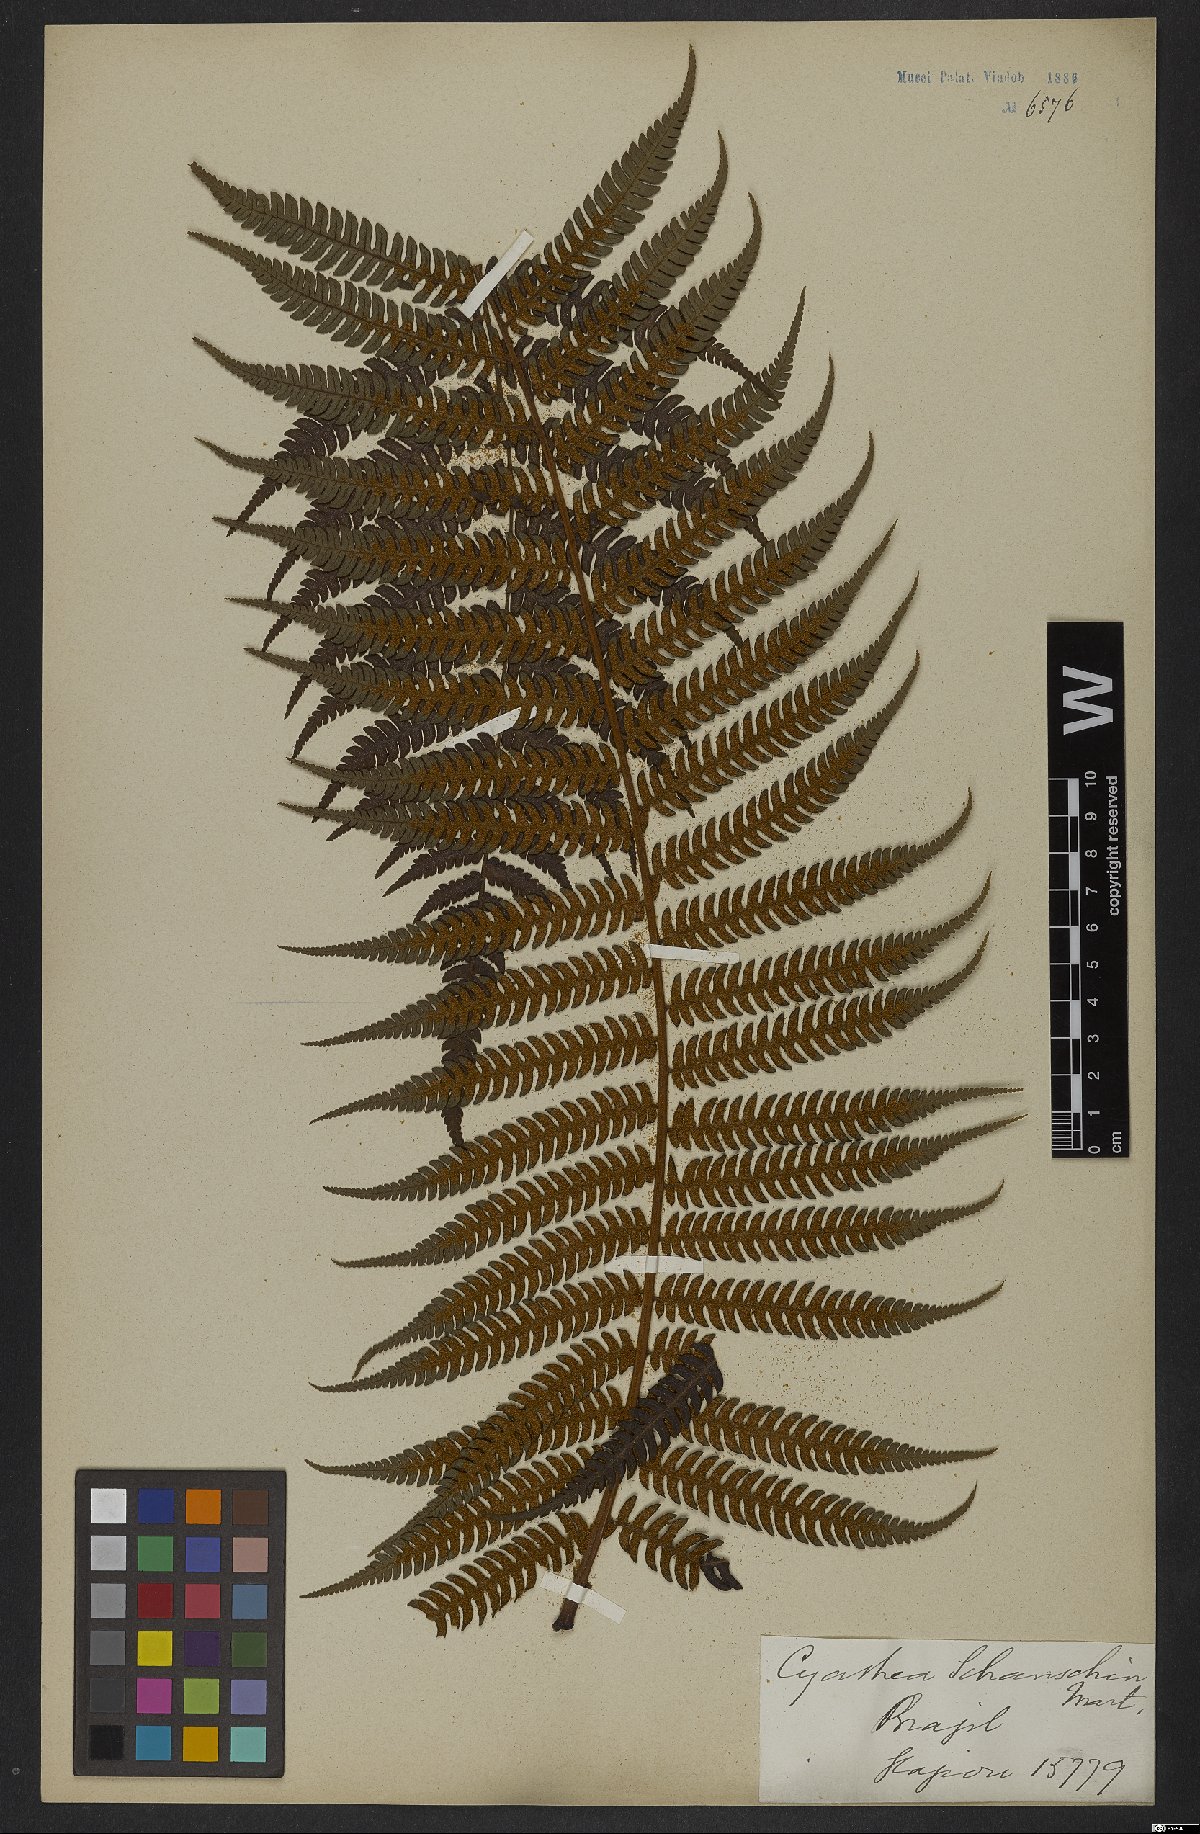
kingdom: Plantae
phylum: Tracheophyta
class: Polypodiopsida
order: Cyatheales
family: Cyatheaceae
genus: Cyathea
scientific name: Cyathea delgadii
